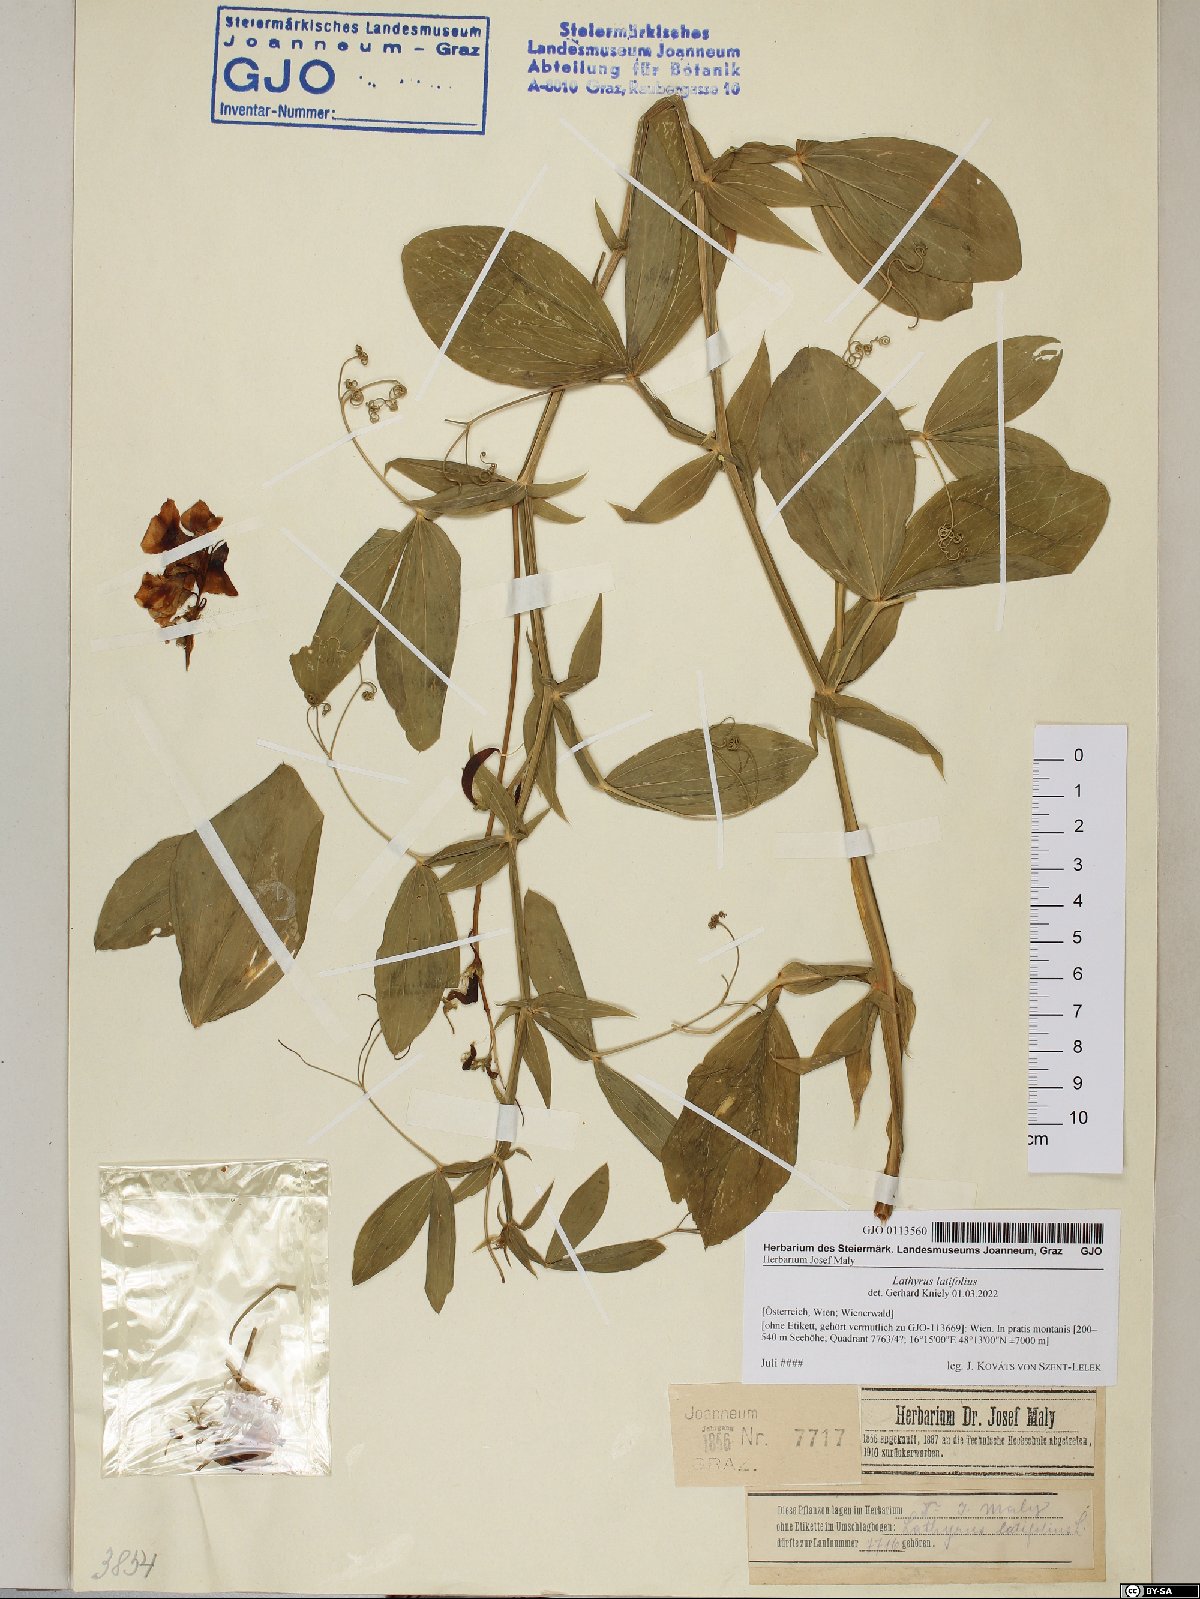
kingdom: Plantae
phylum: Tracheophyta
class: Magnoliopsida
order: Fabales
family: Fabaceae
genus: Lathyrus
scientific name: Lathyrus latifolius
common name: Perennial pea
